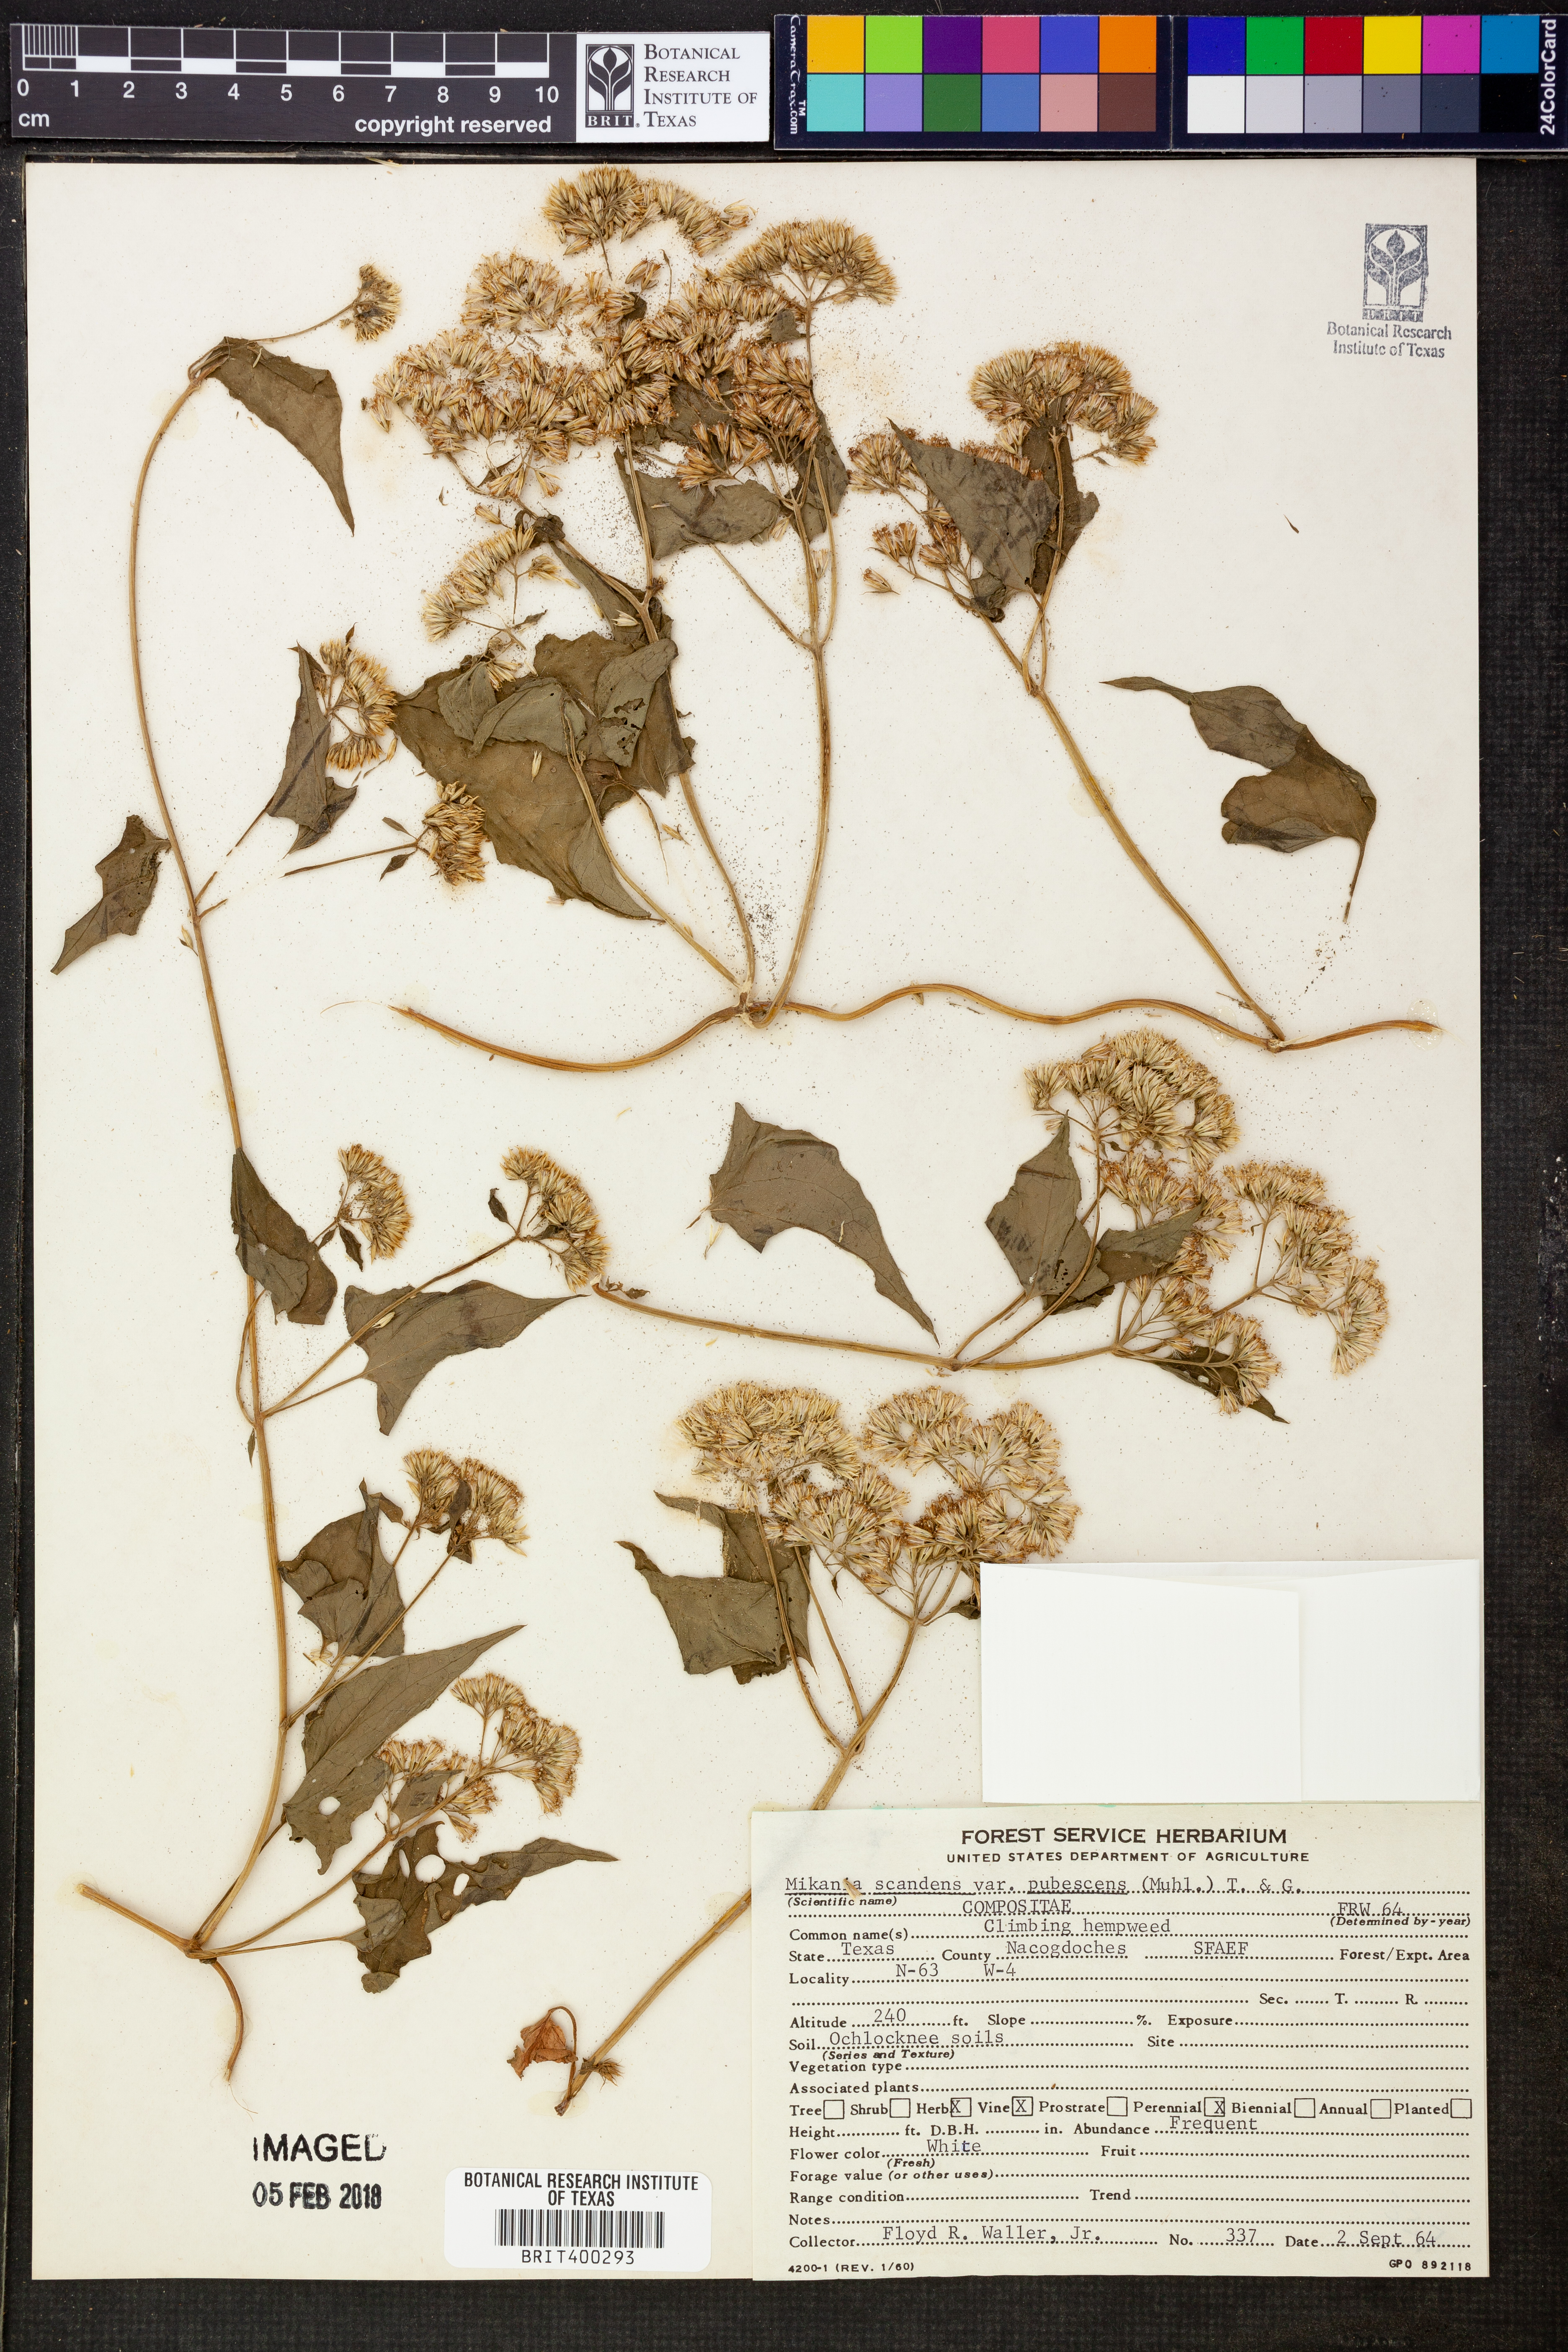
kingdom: Plantae
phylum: Tracheophyta
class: Magnoliopsida
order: Asterales
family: Asteraceae
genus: Mikania
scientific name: Mikania cordifolia
